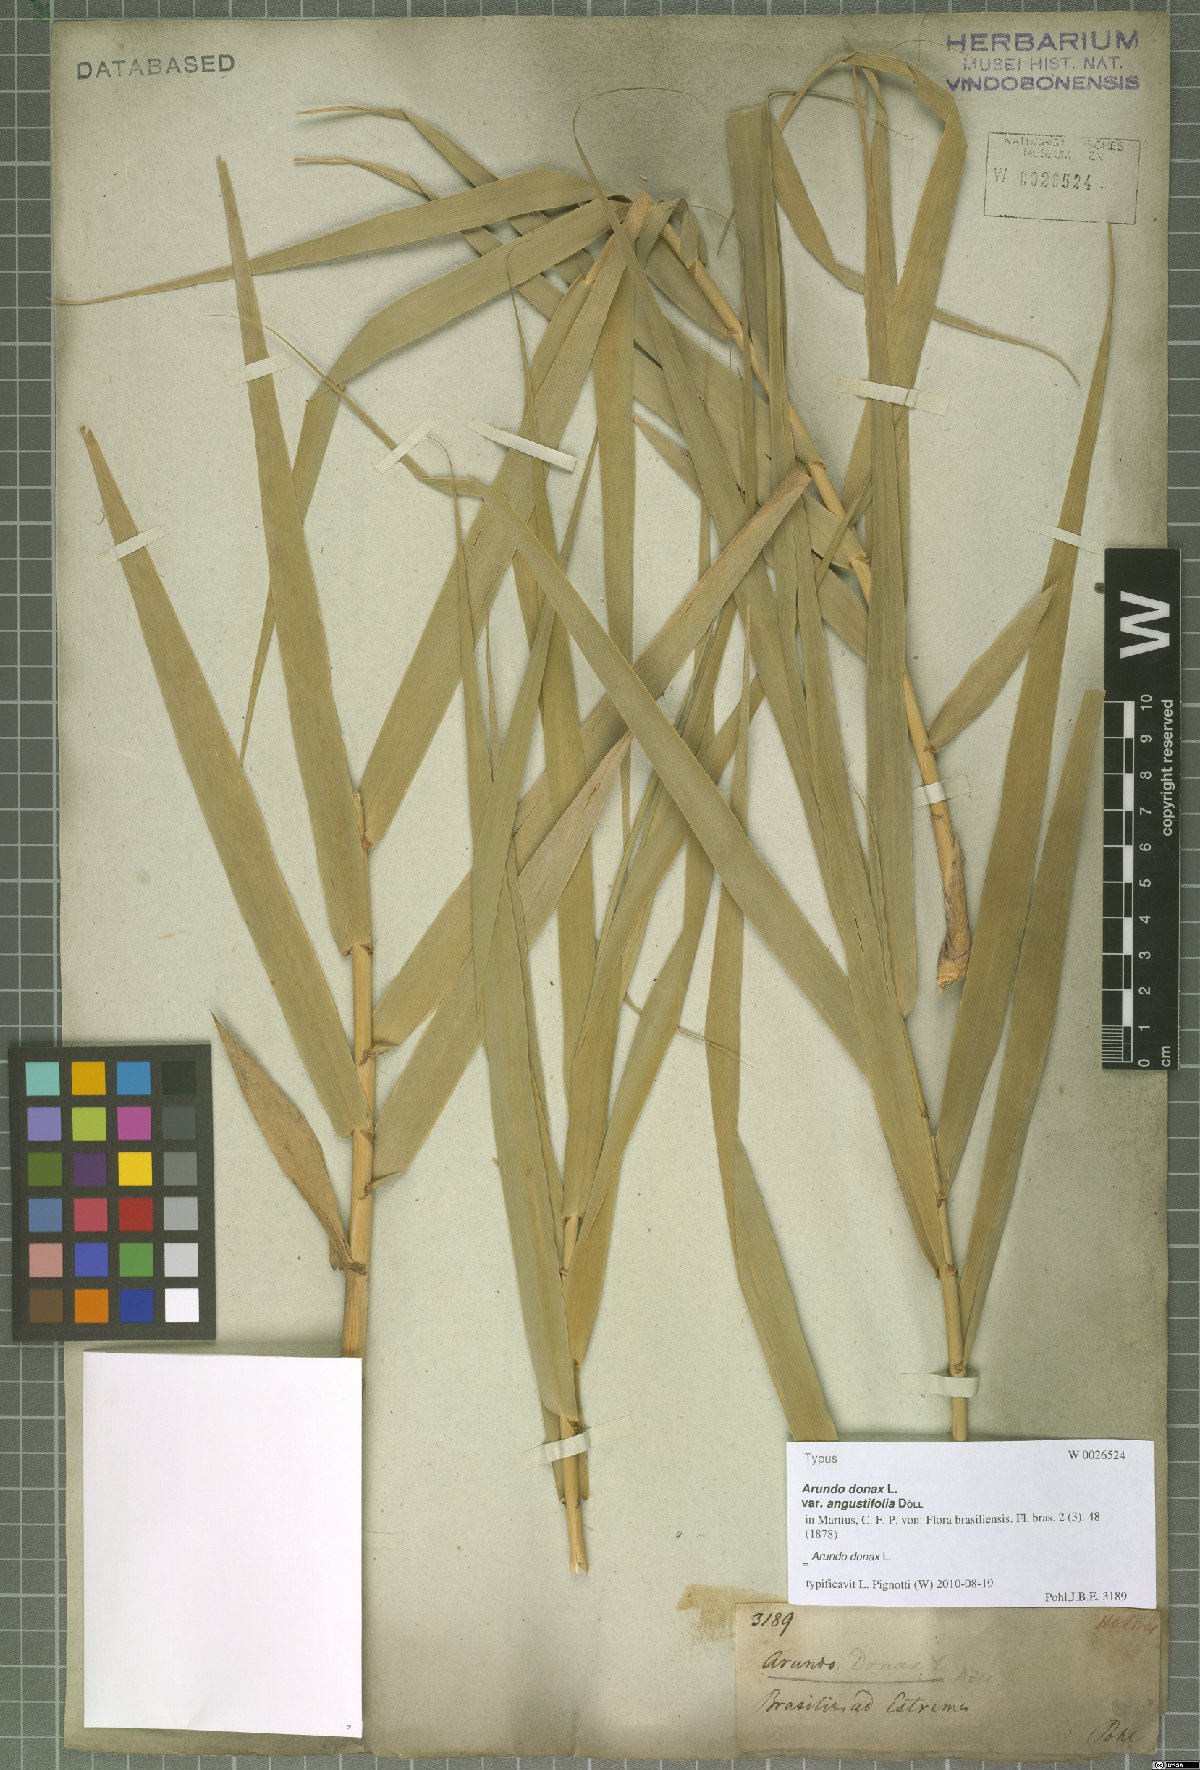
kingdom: Plantae
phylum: Tracheophyta
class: Liliopsida
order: Poales
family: Poaceae
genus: Arundo
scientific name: Arundo donax
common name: Giant reed
